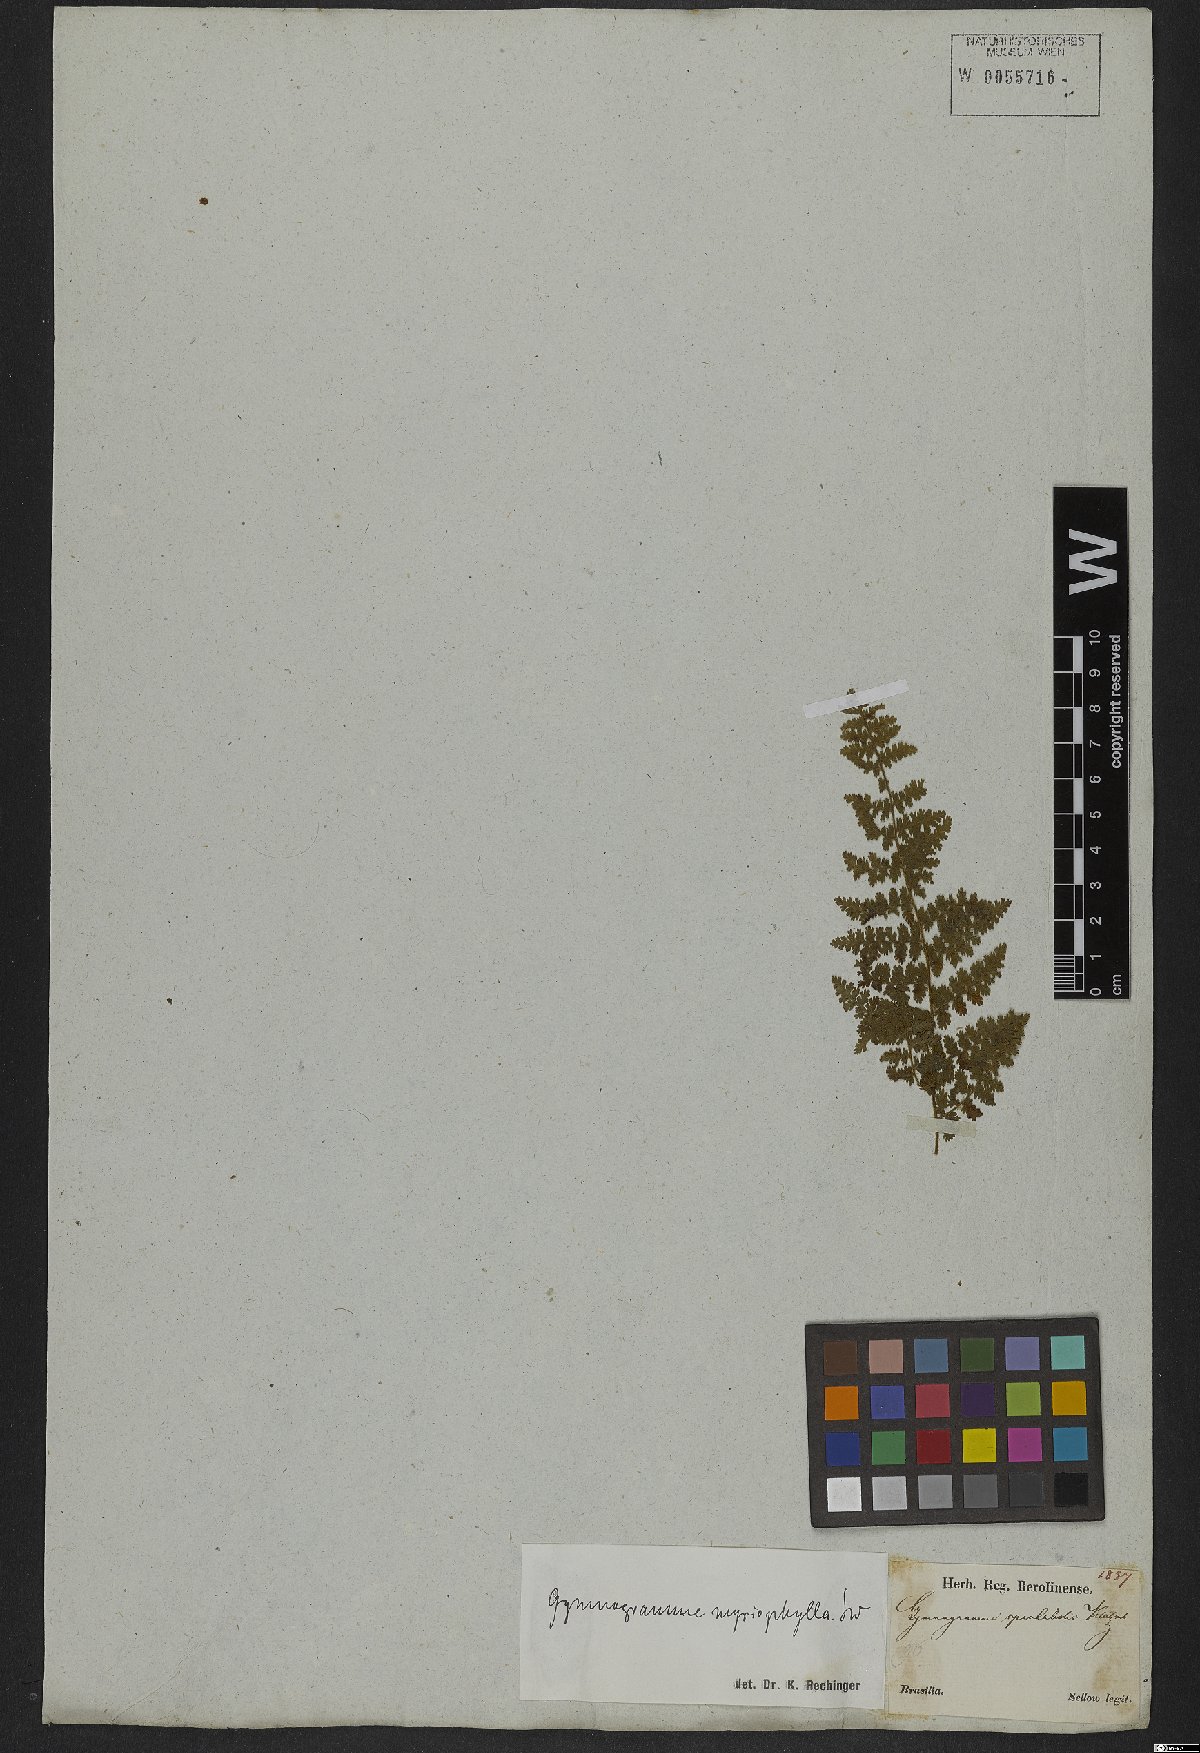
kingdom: Plantae
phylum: Tracheophyta
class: Polypodiopsida
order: Polypodiales
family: Pteridaceae
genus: Tryonia
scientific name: Tryonia myriophylla
